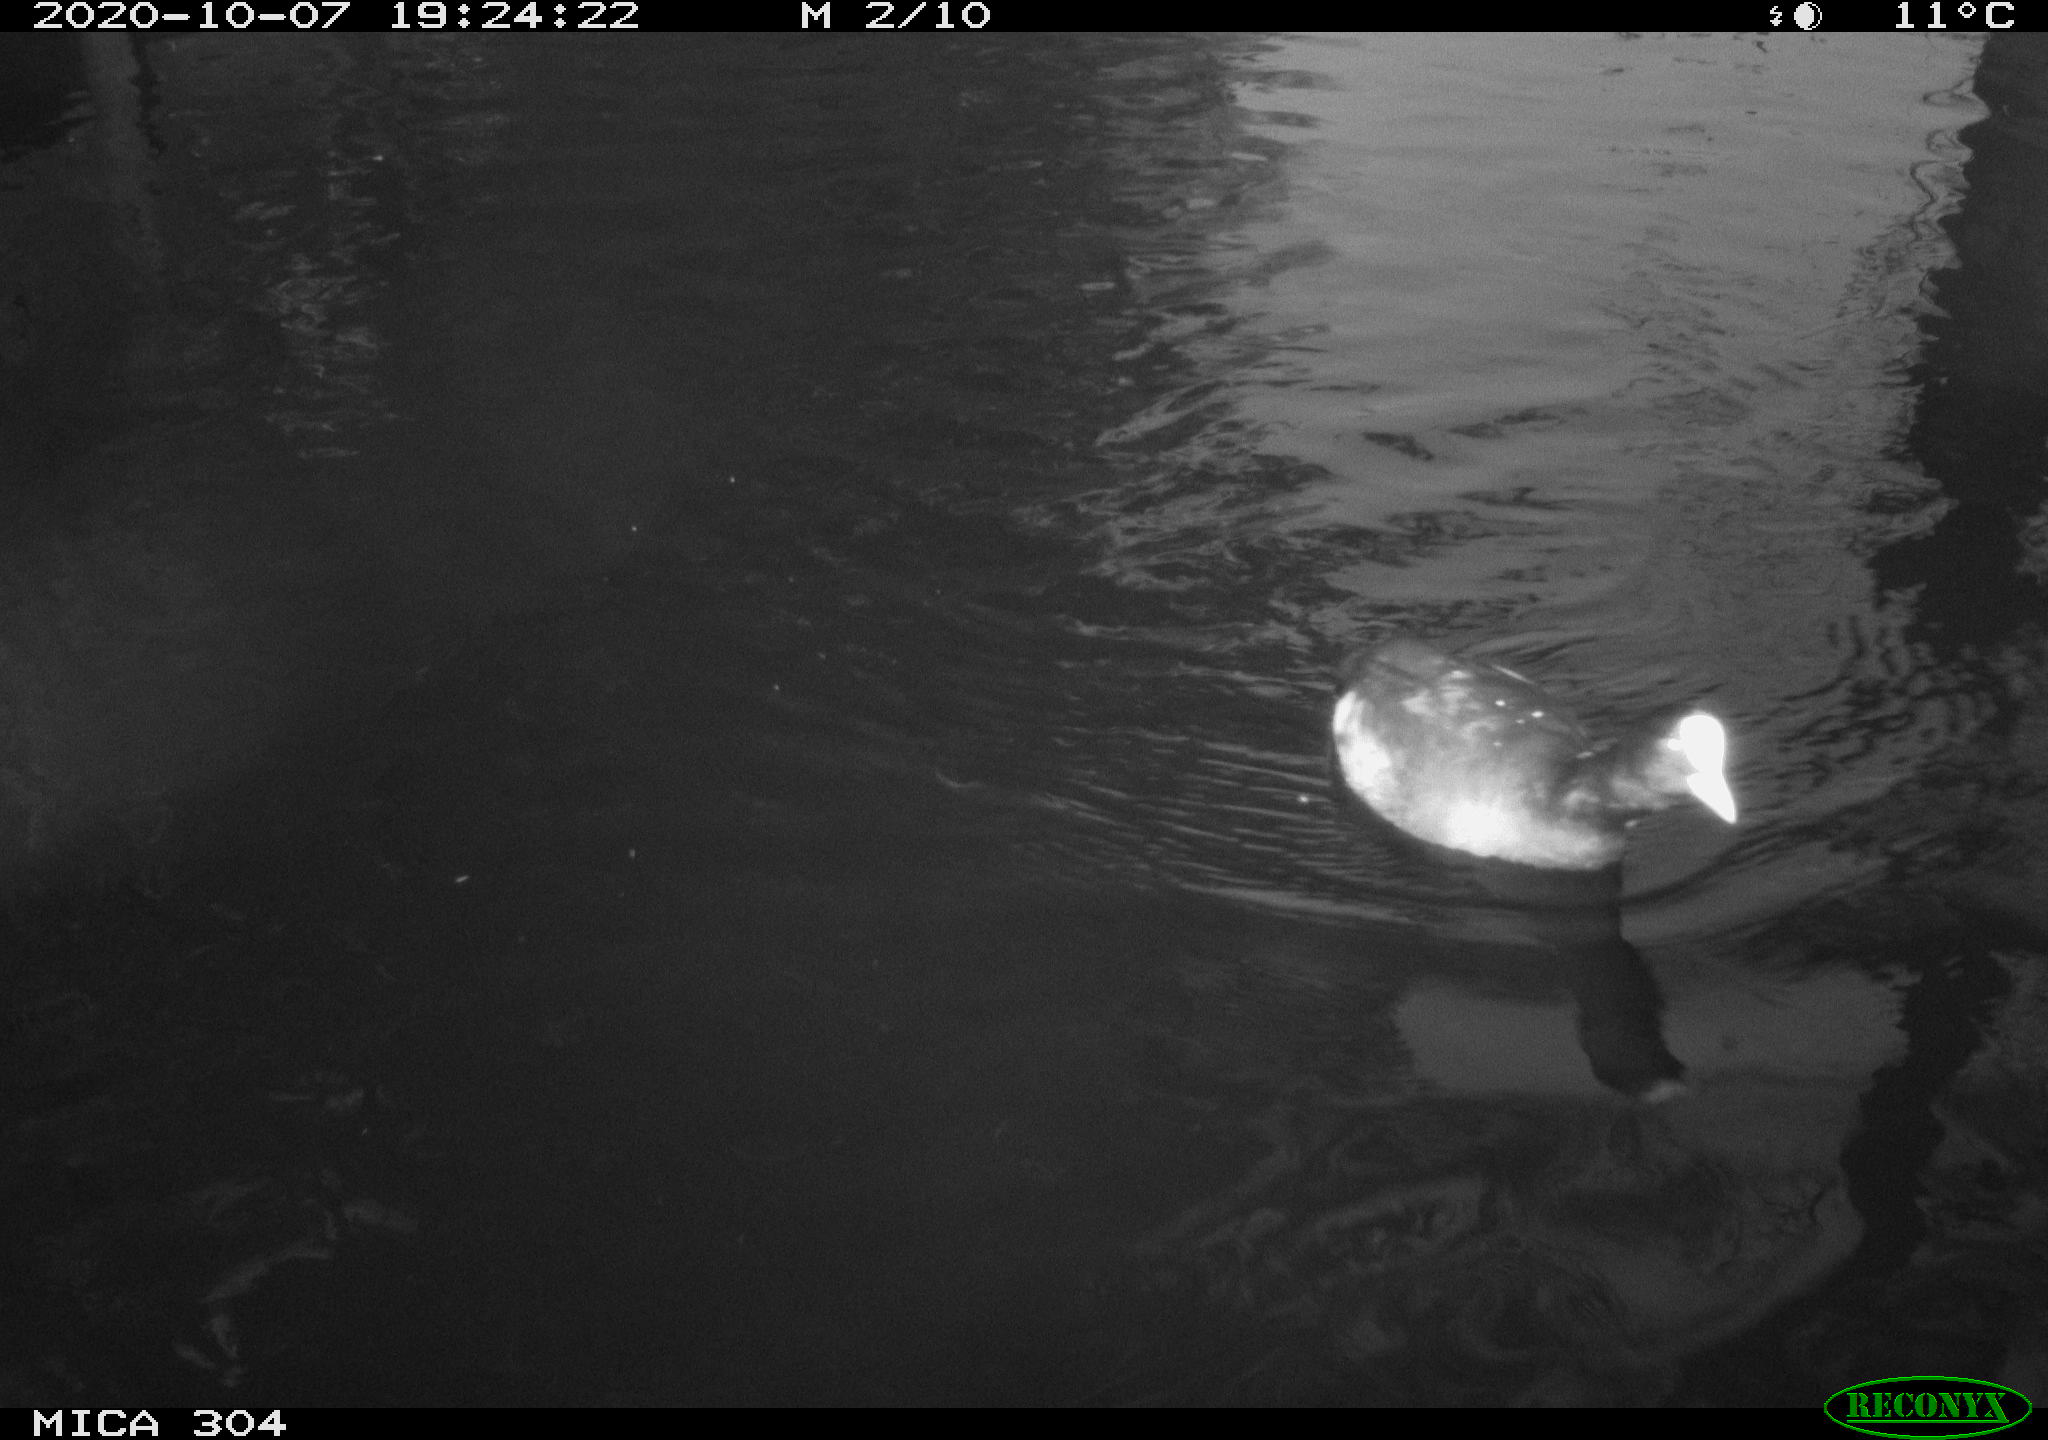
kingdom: Animalia
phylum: Chordata
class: Aves
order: Gruiformes
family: Rallidae
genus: Fulica
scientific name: Fulica atra
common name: Eurasian coot
